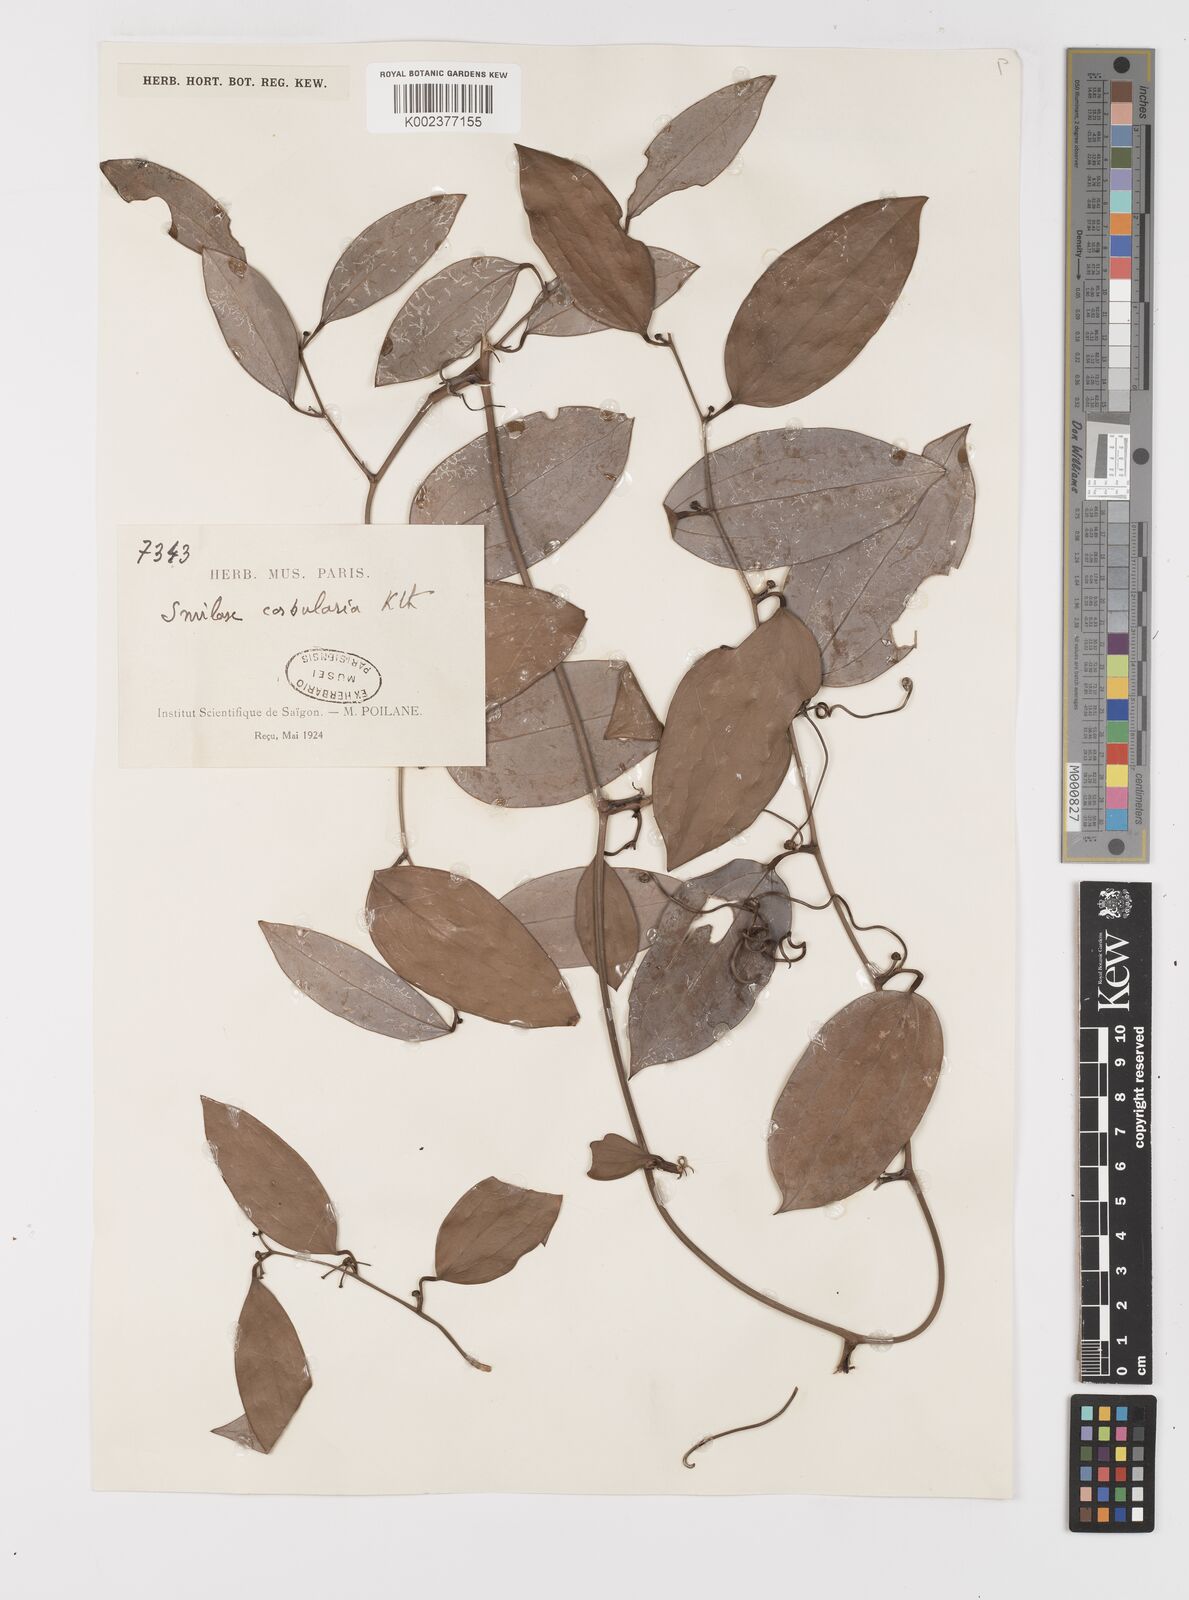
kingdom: Plantae
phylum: Tracheophyta
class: Liliopsida
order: Liliales
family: Smilacaceae
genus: Smilax
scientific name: Smilax corbularia
